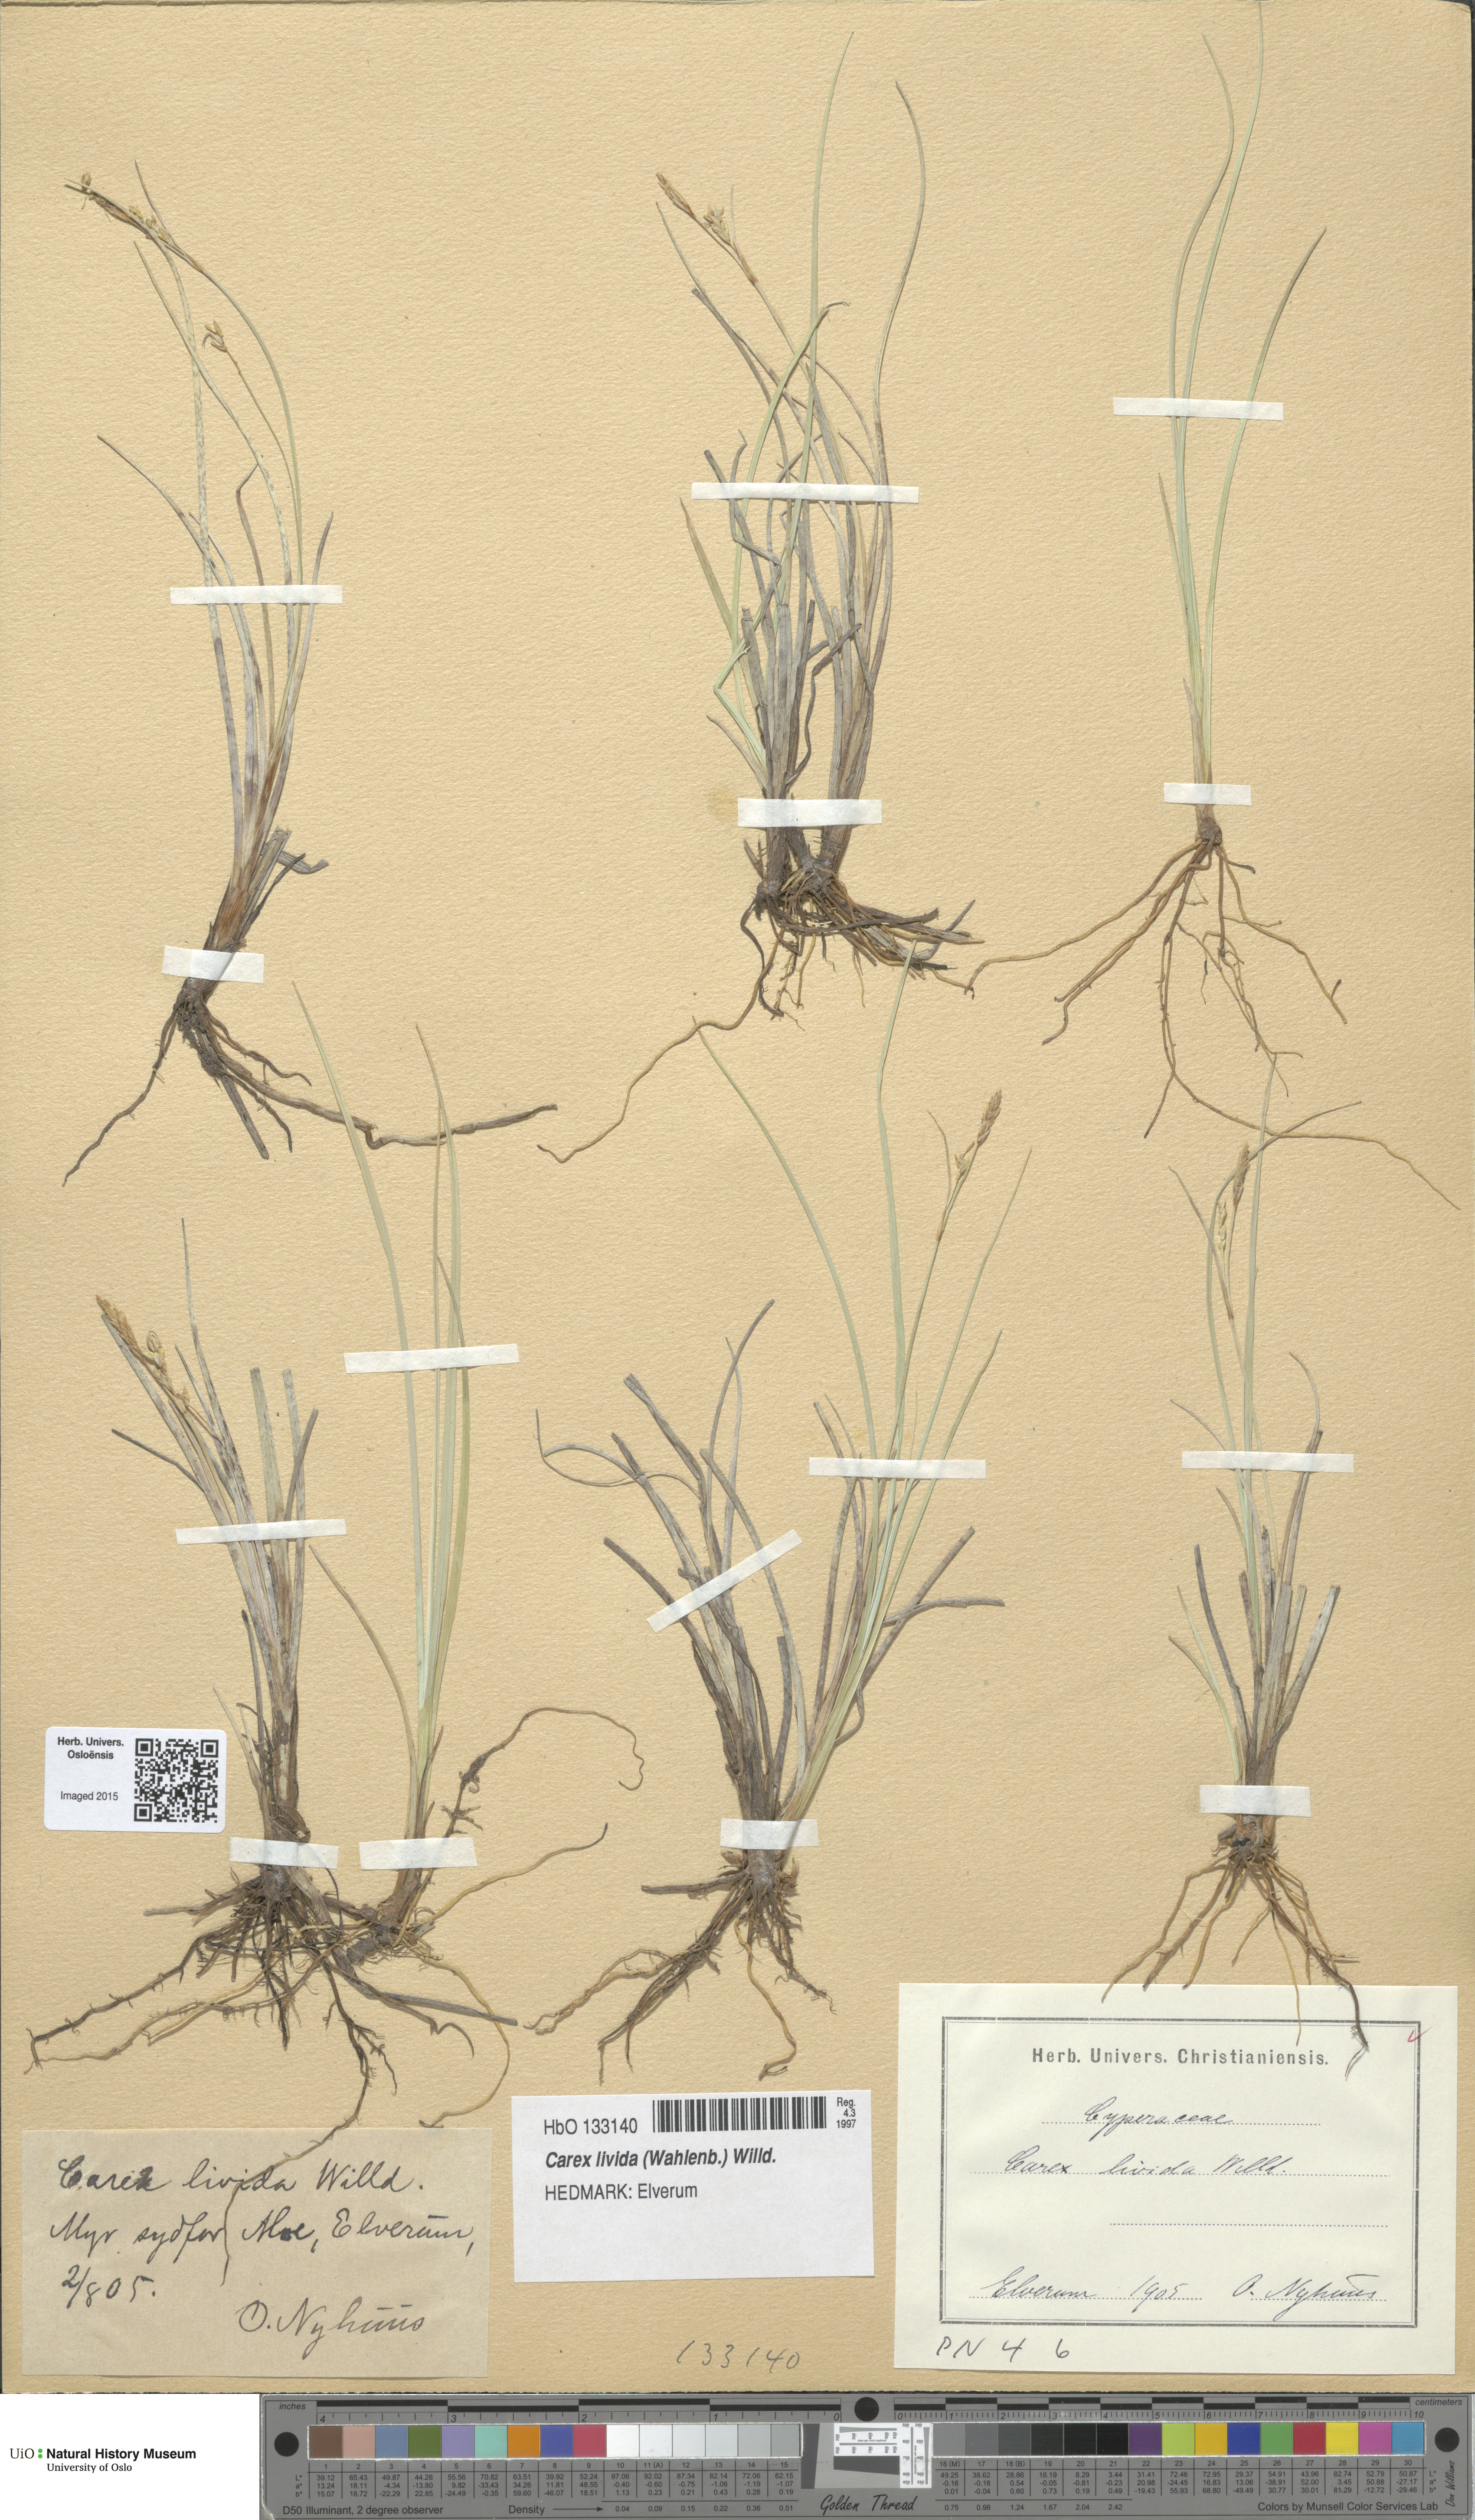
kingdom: Plantae
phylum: Tracheophyta
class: Liliopsida
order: Poales
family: Cyperaceae
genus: Carex
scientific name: Carex livida
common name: Livid sedge
